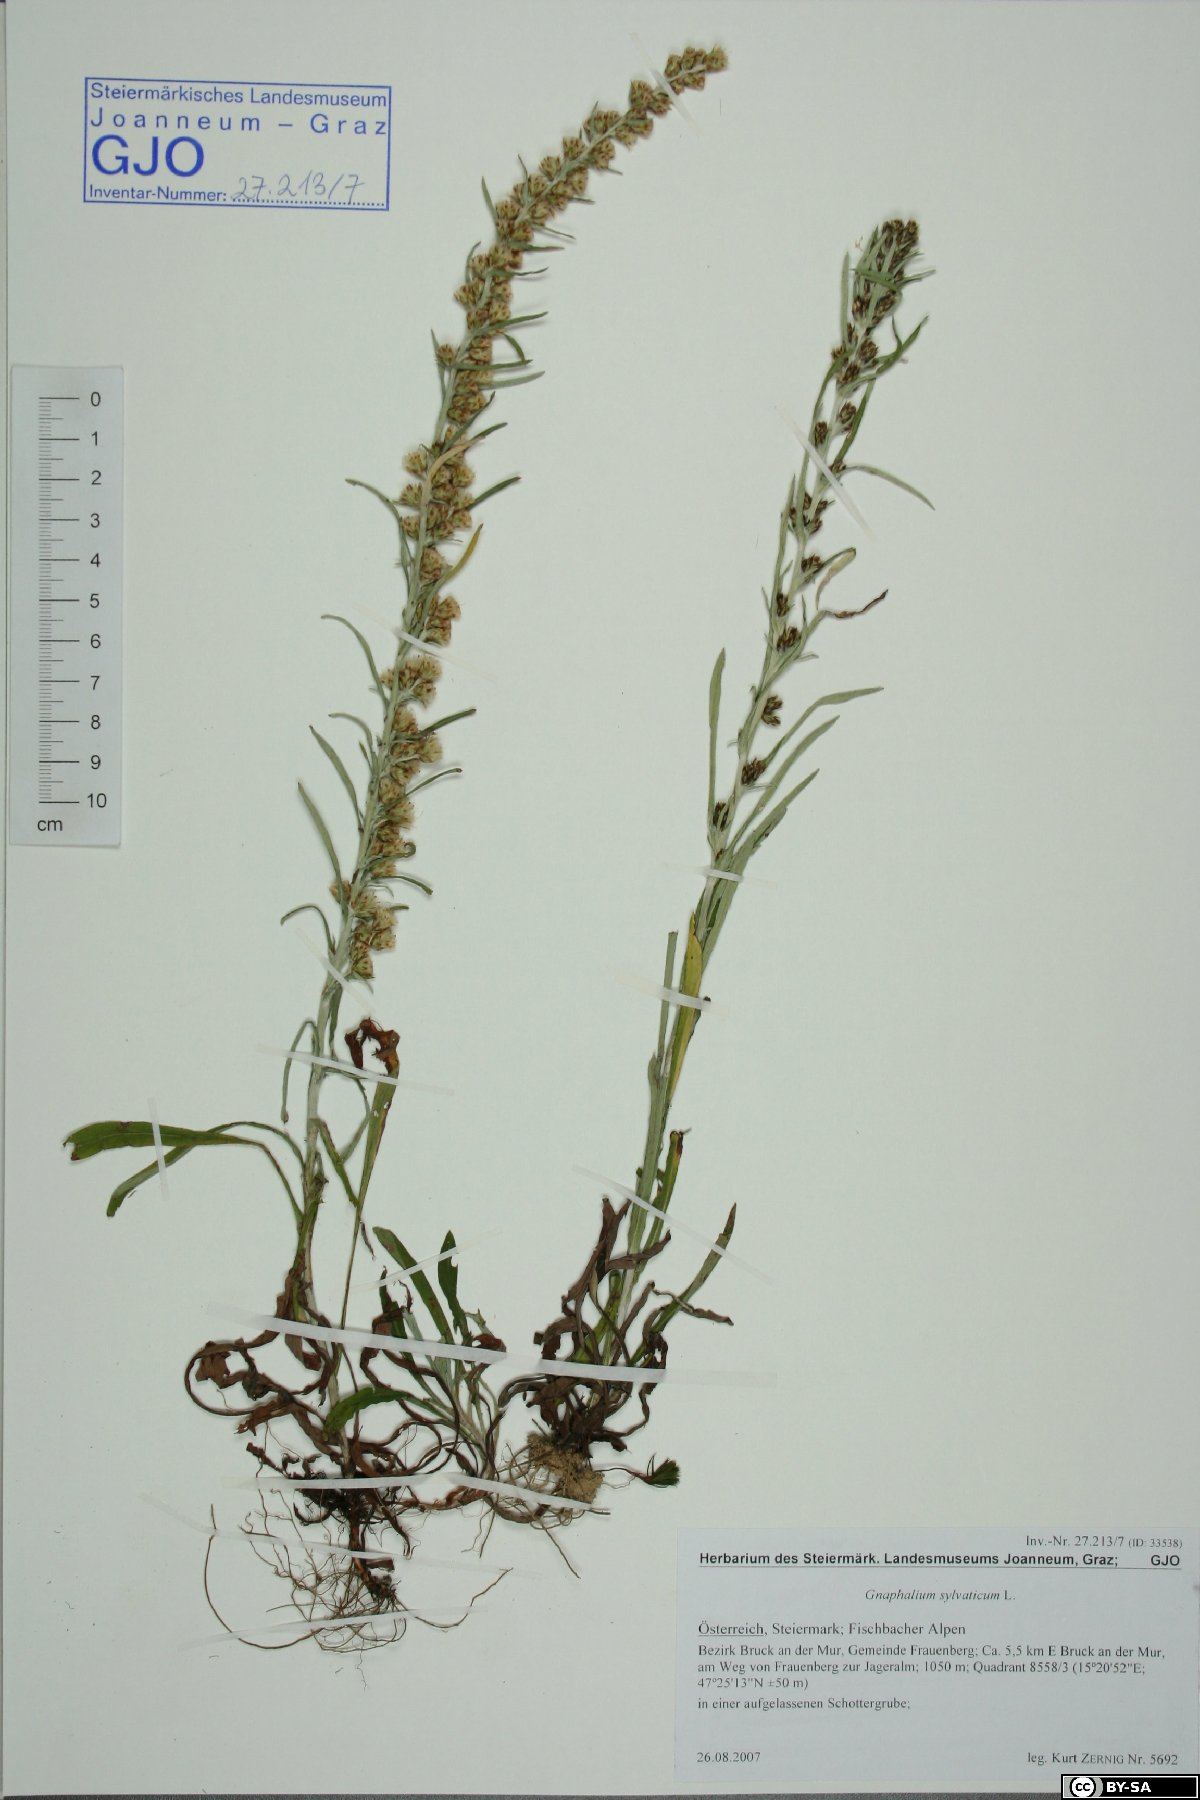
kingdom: Plantae
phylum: Tracheophyta
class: Magnoliopsida
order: Asterales
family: Asteraceae
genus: Omalotheca
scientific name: Omalotheca sylvatica
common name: Heath cudweed
